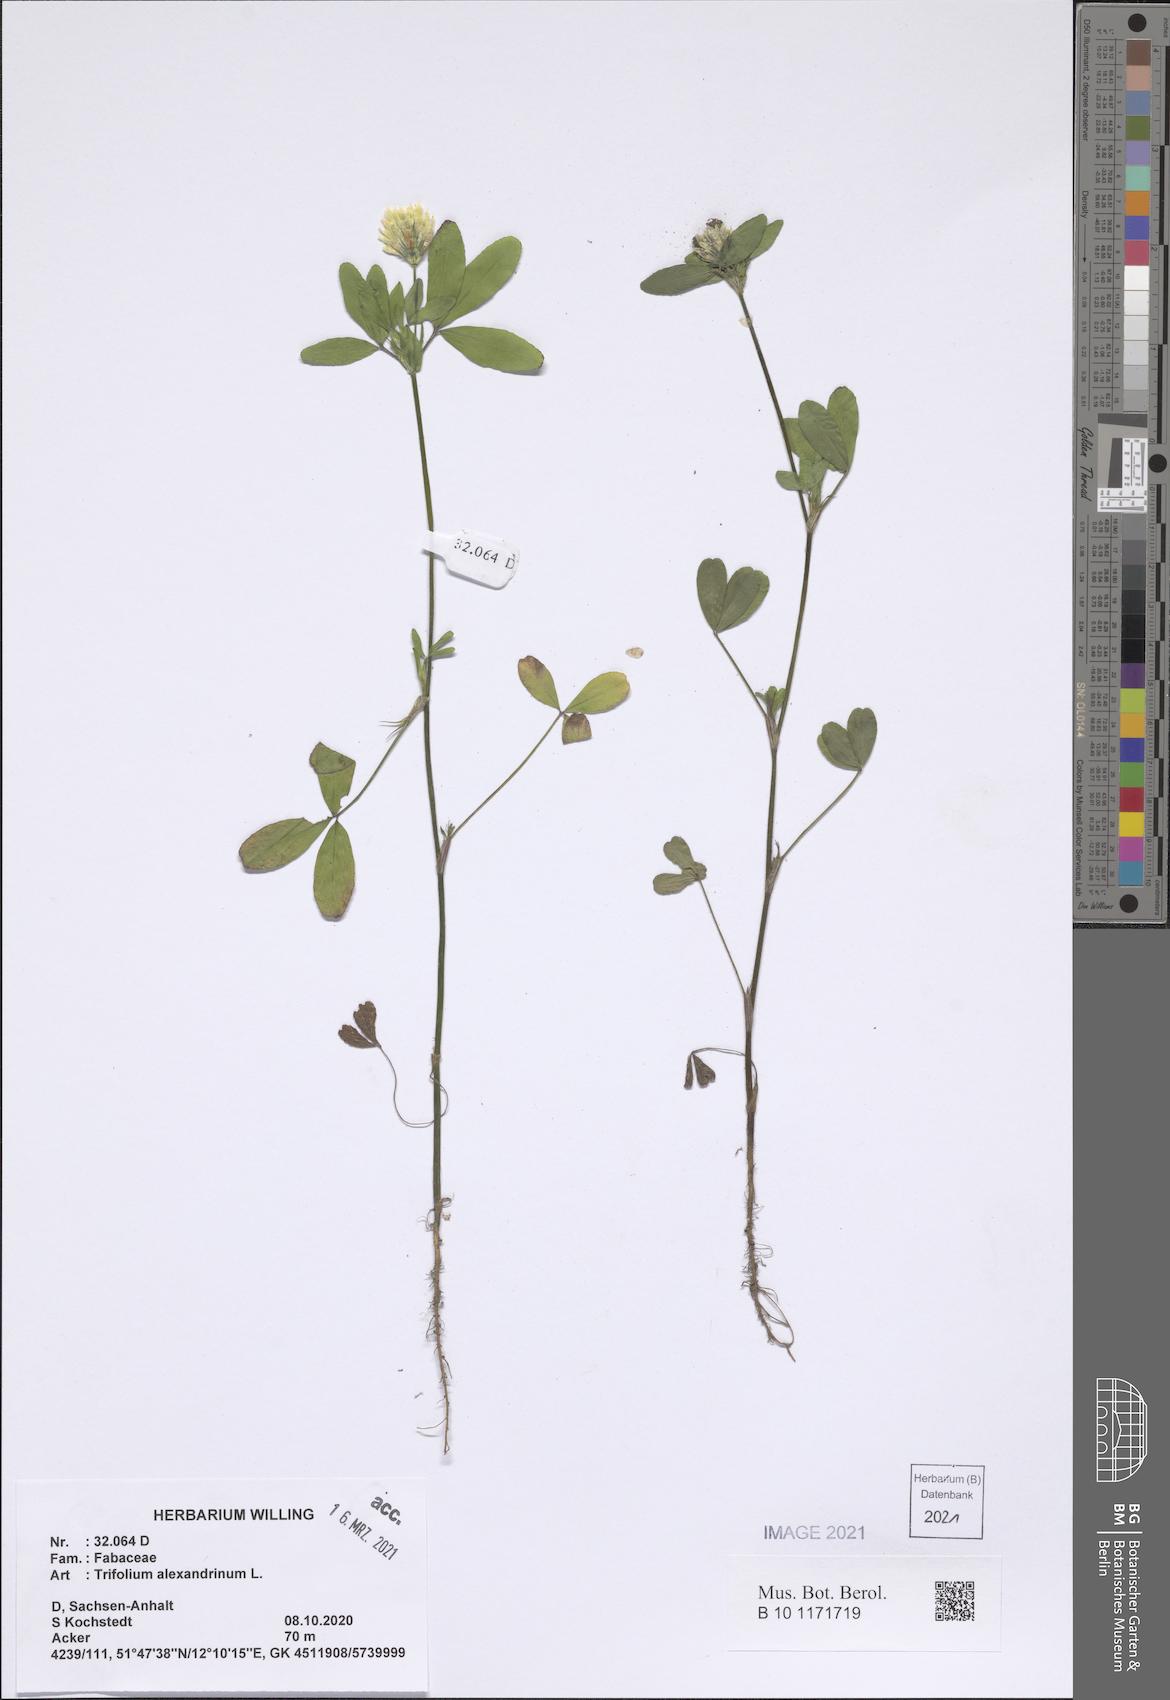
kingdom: Plantae
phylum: Tracheophyta
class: Magnoliopsida
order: Fabales
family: Fabaceae
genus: Trifolium
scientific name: Trifolium alexandrinum
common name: Egyptian clover
